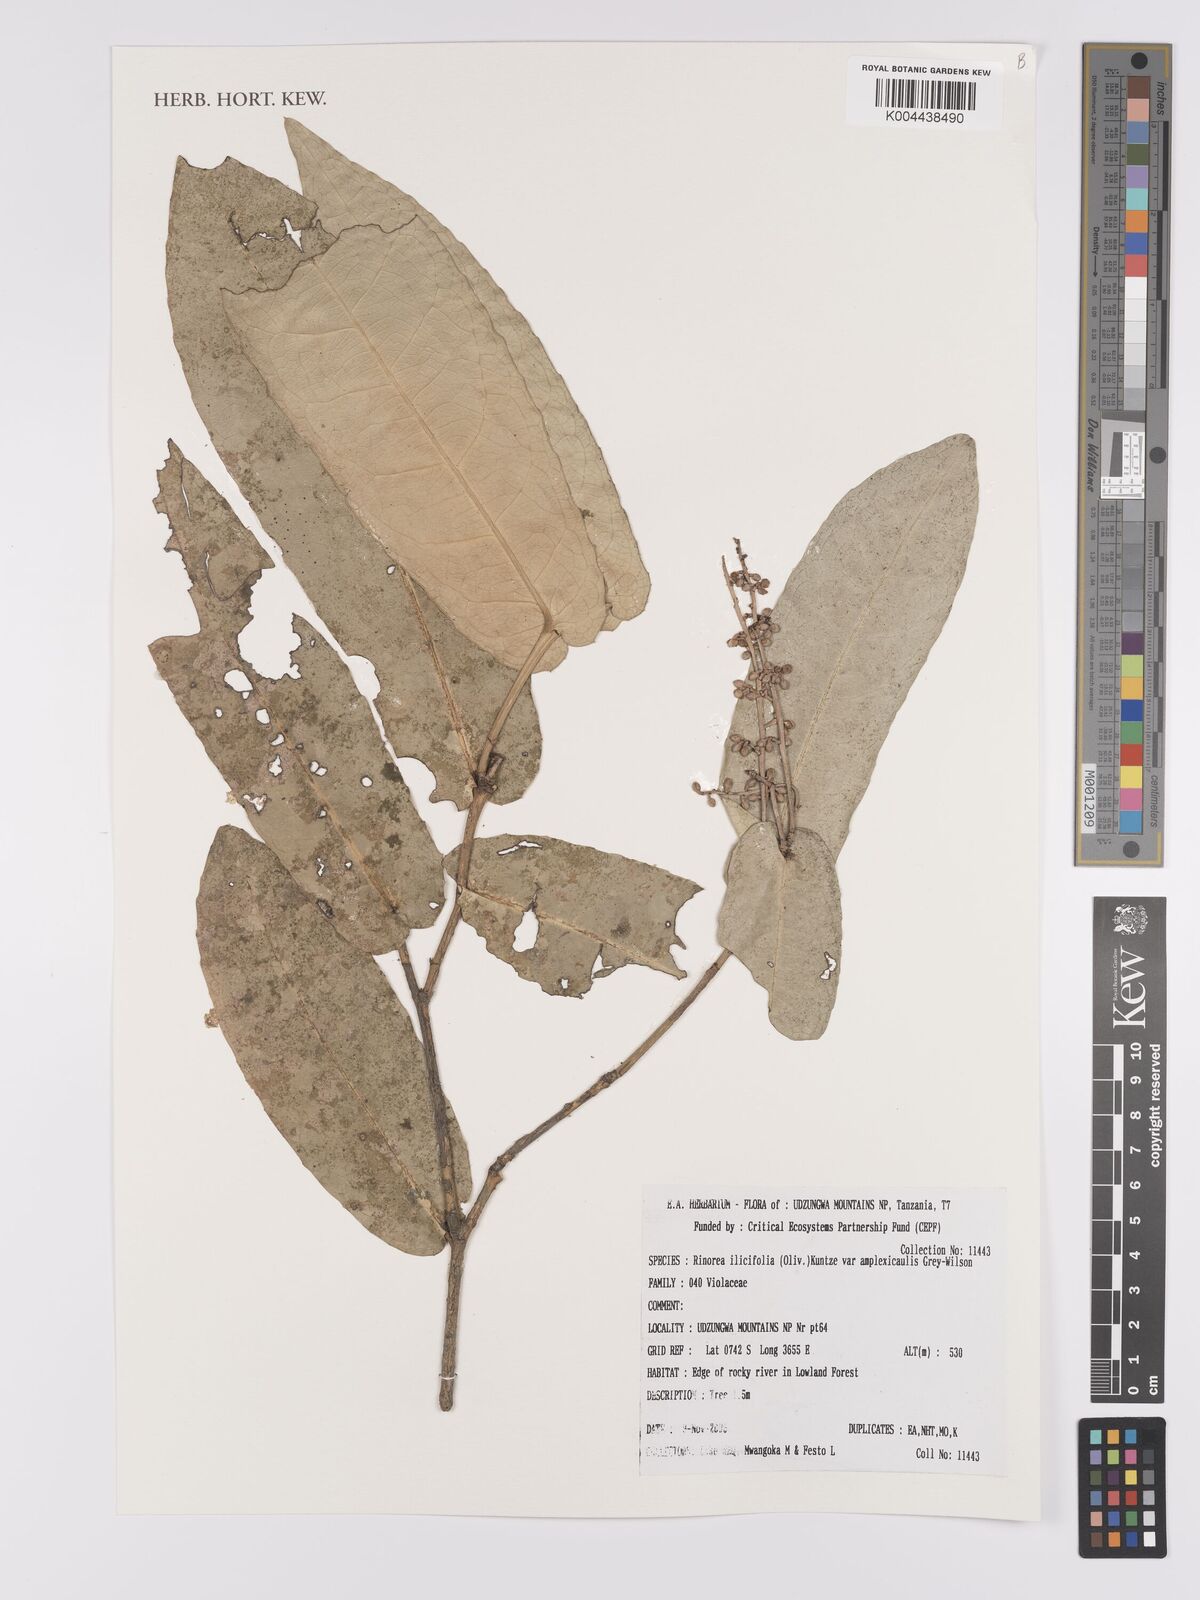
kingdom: Plantae
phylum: Tracheophyta
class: Magnoliopsida
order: Malpighiales
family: Violaceae
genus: Rinorea
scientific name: Rinorea ilicifolia
